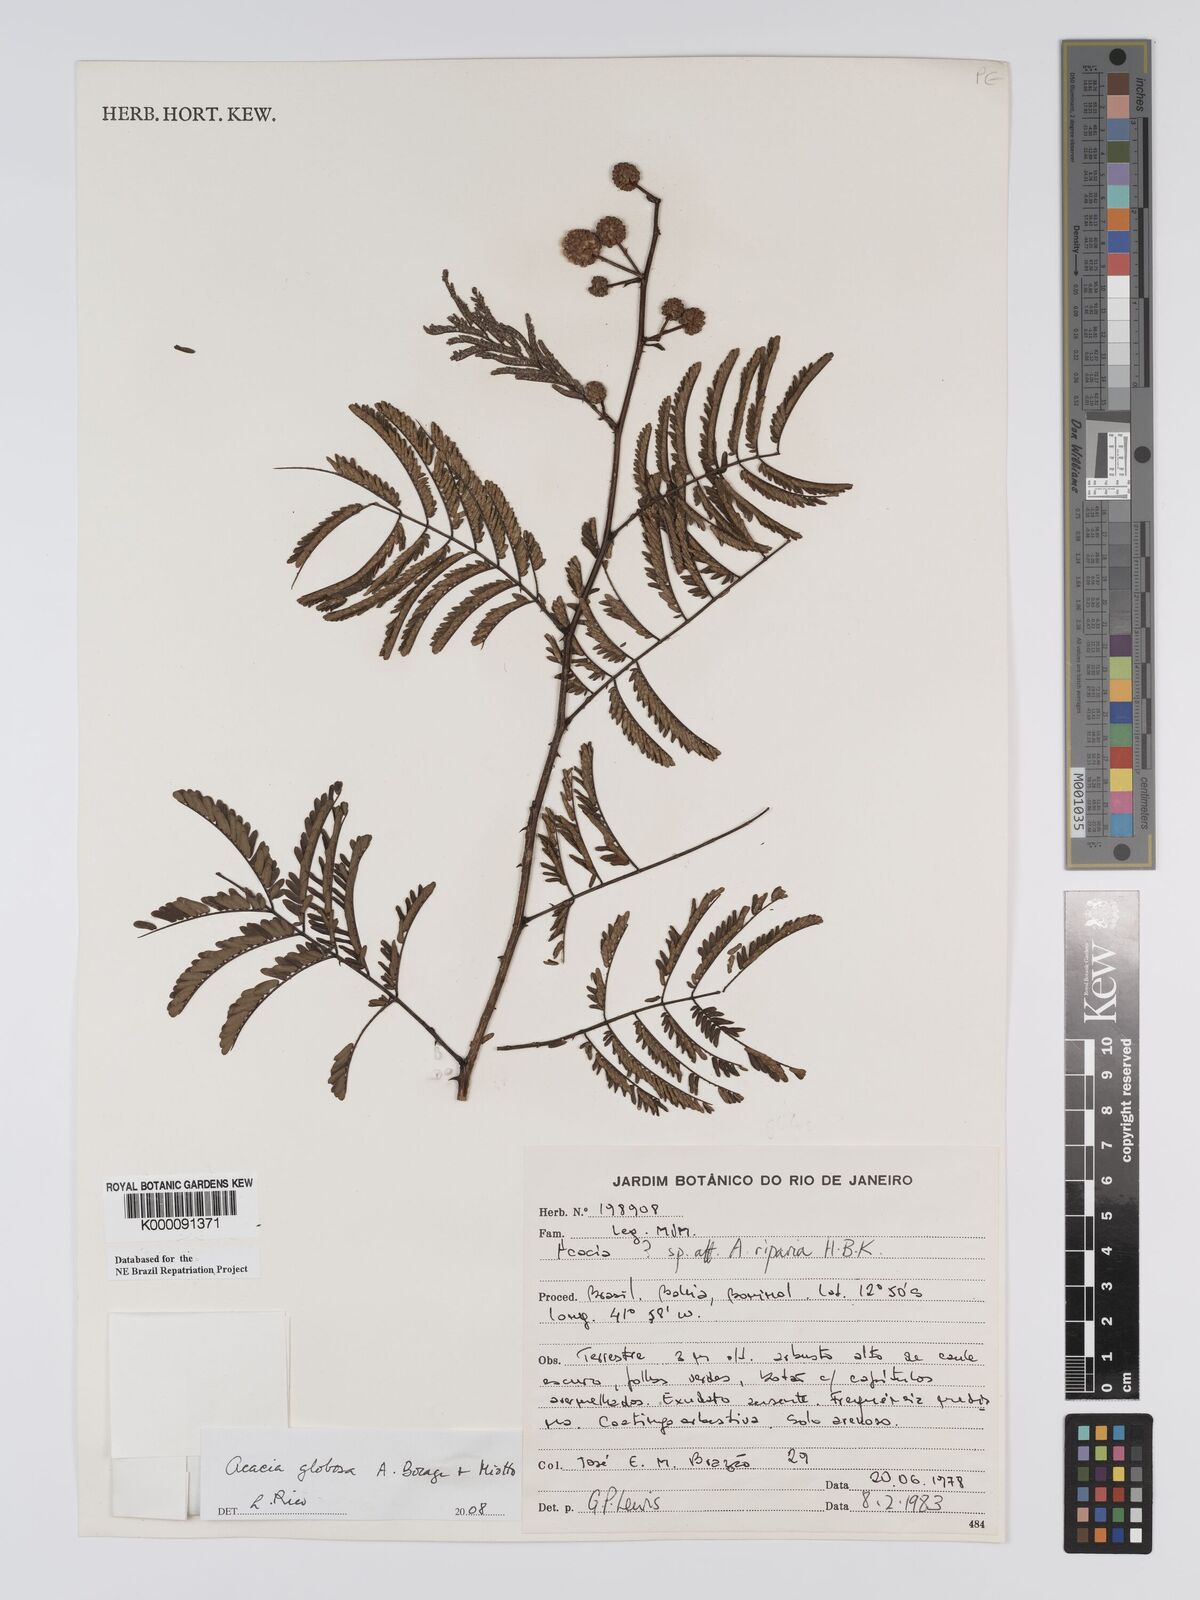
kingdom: Plantae
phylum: Tracheophyta
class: Magnoliopsida
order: Fabales
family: Fabaceae
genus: Senegalia
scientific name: Senegalia globosa
